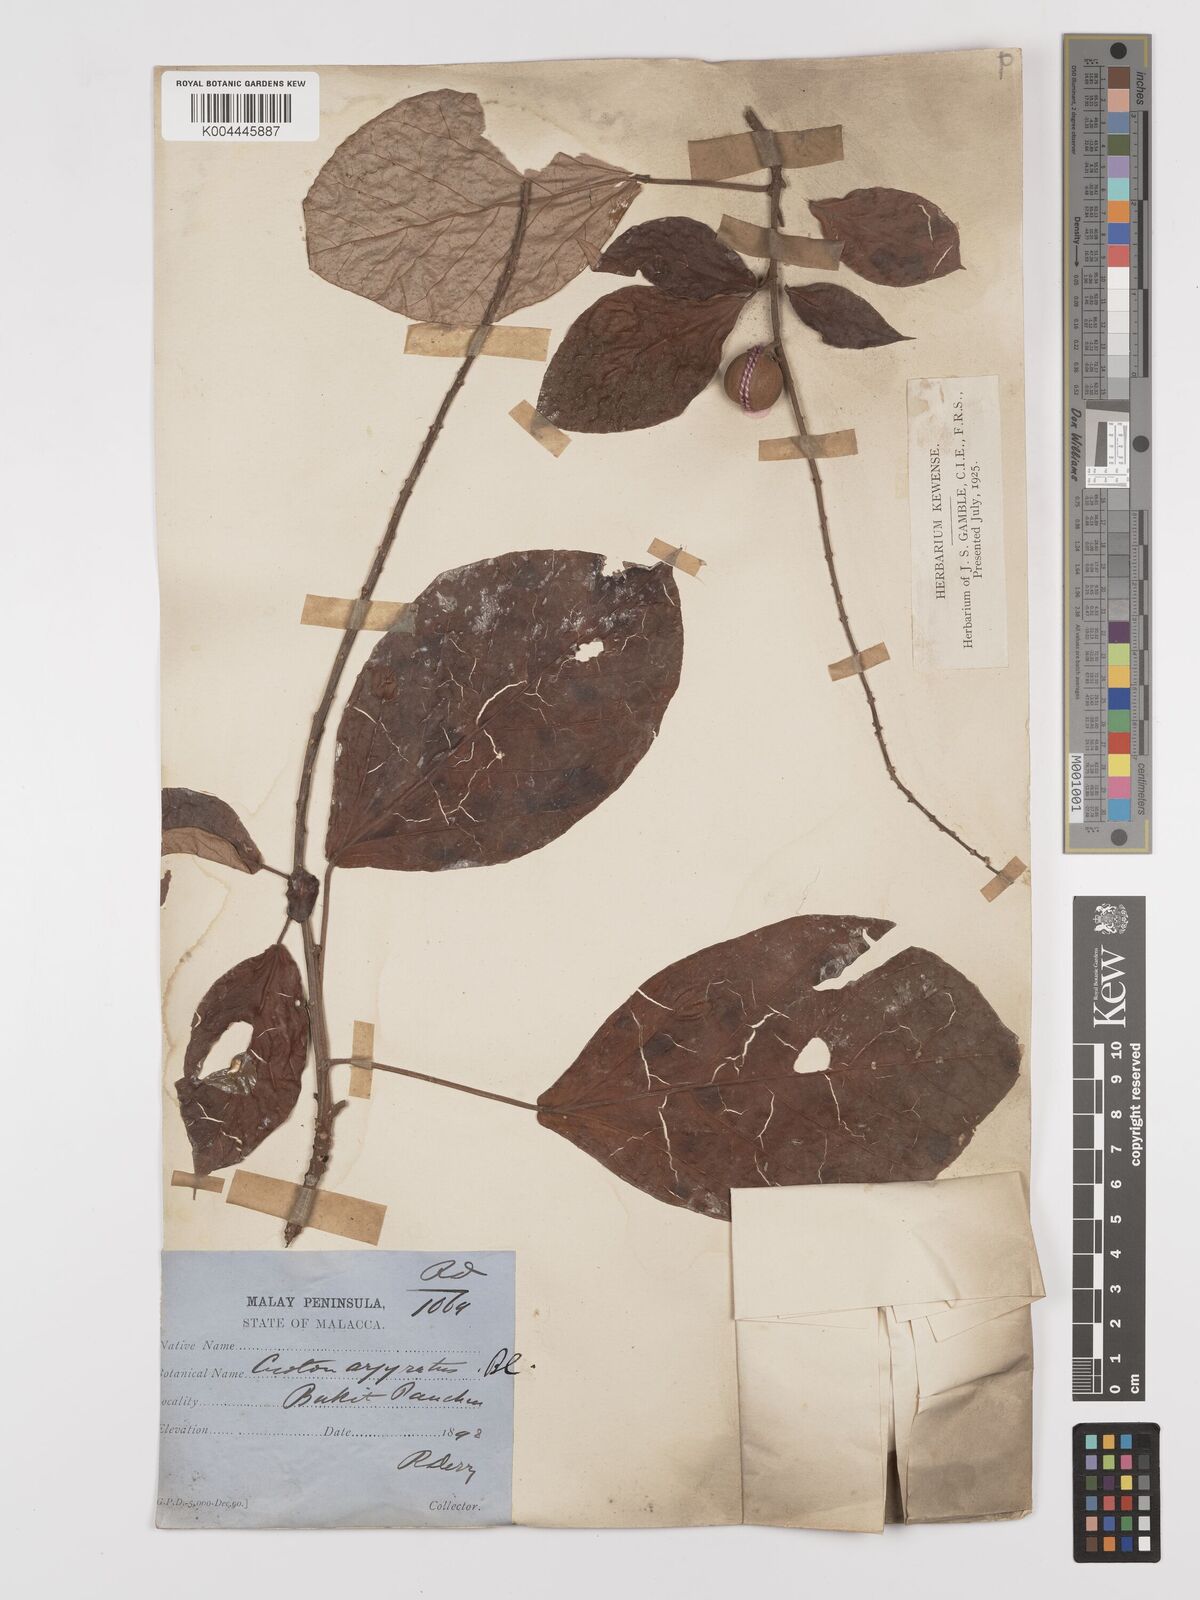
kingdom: Plantae
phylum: Tracheophyta
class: Magnoliopsida
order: Malpighiales
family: Euphorbiaceae
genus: Croton
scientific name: Croton argyratus
